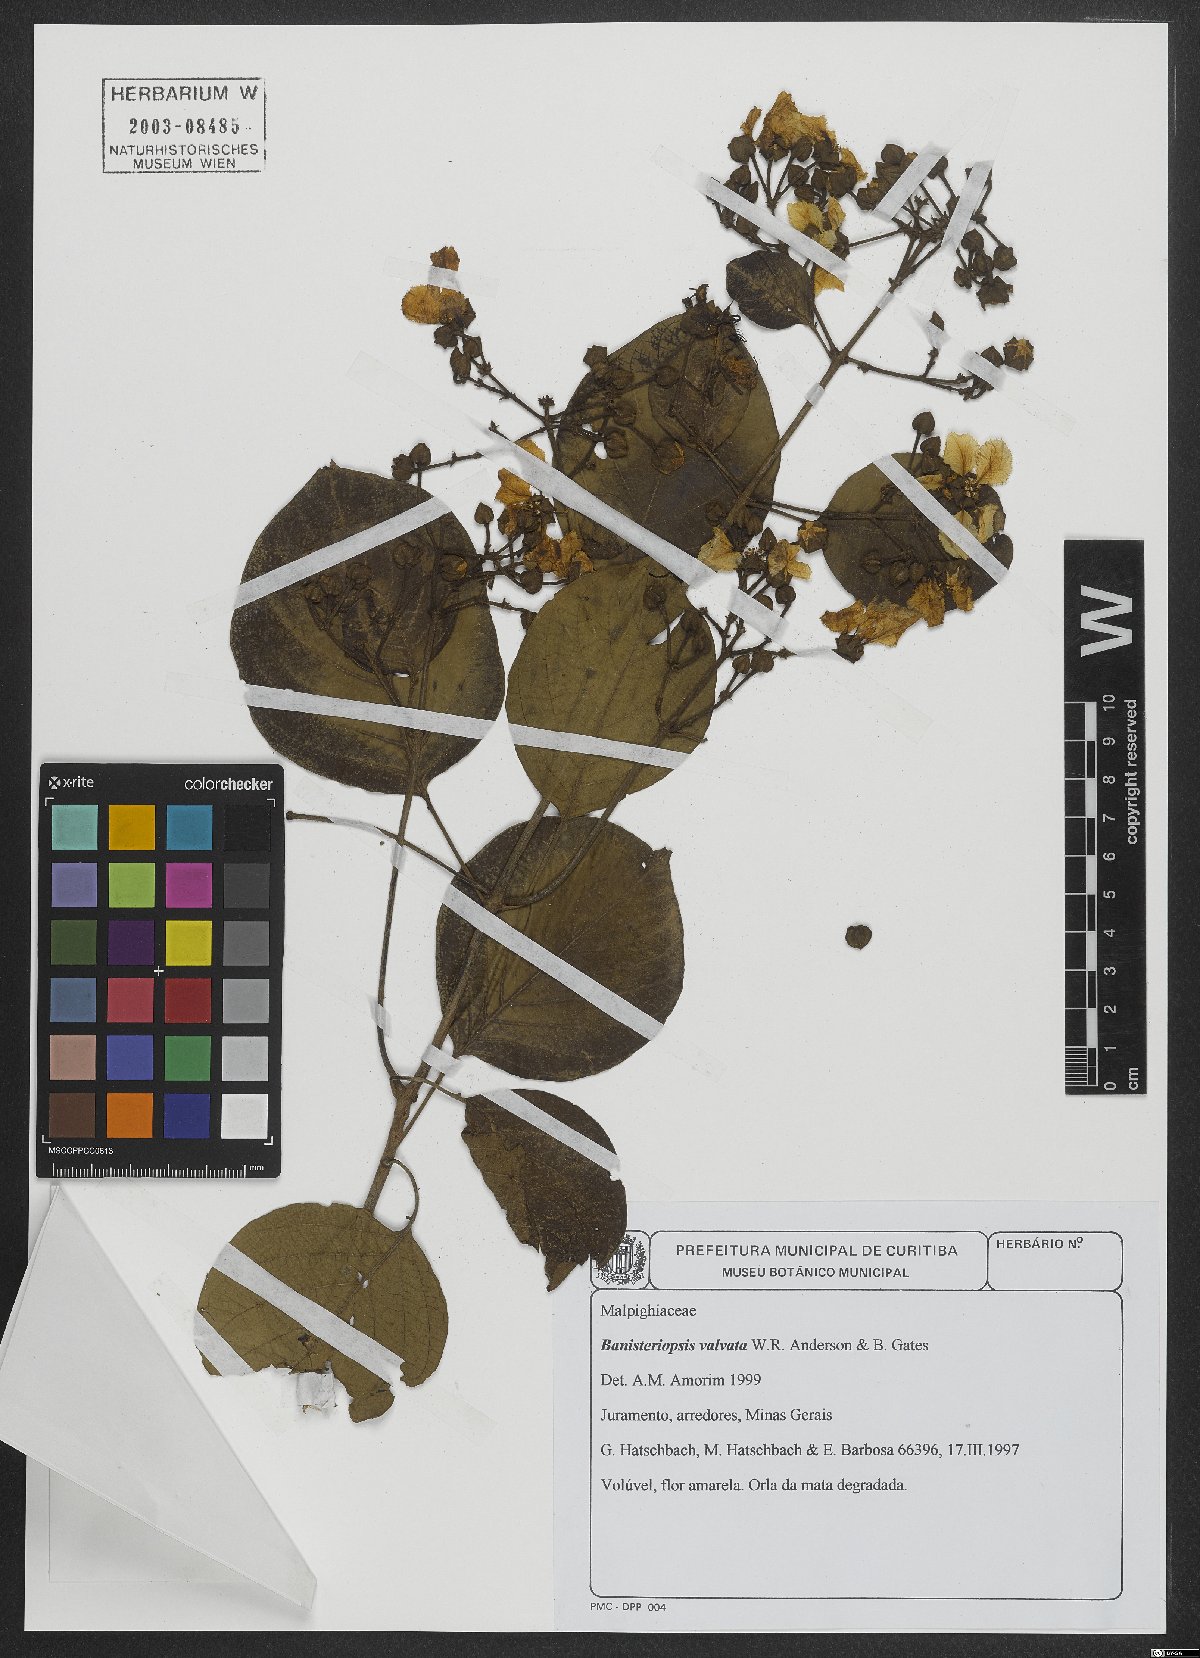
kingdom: Plantae
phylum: Tracheophyta
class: Magnoliopsida
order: Malpighiales
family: Malpighiaceae
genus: Diplopterys
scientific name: Diplopterys valvata
